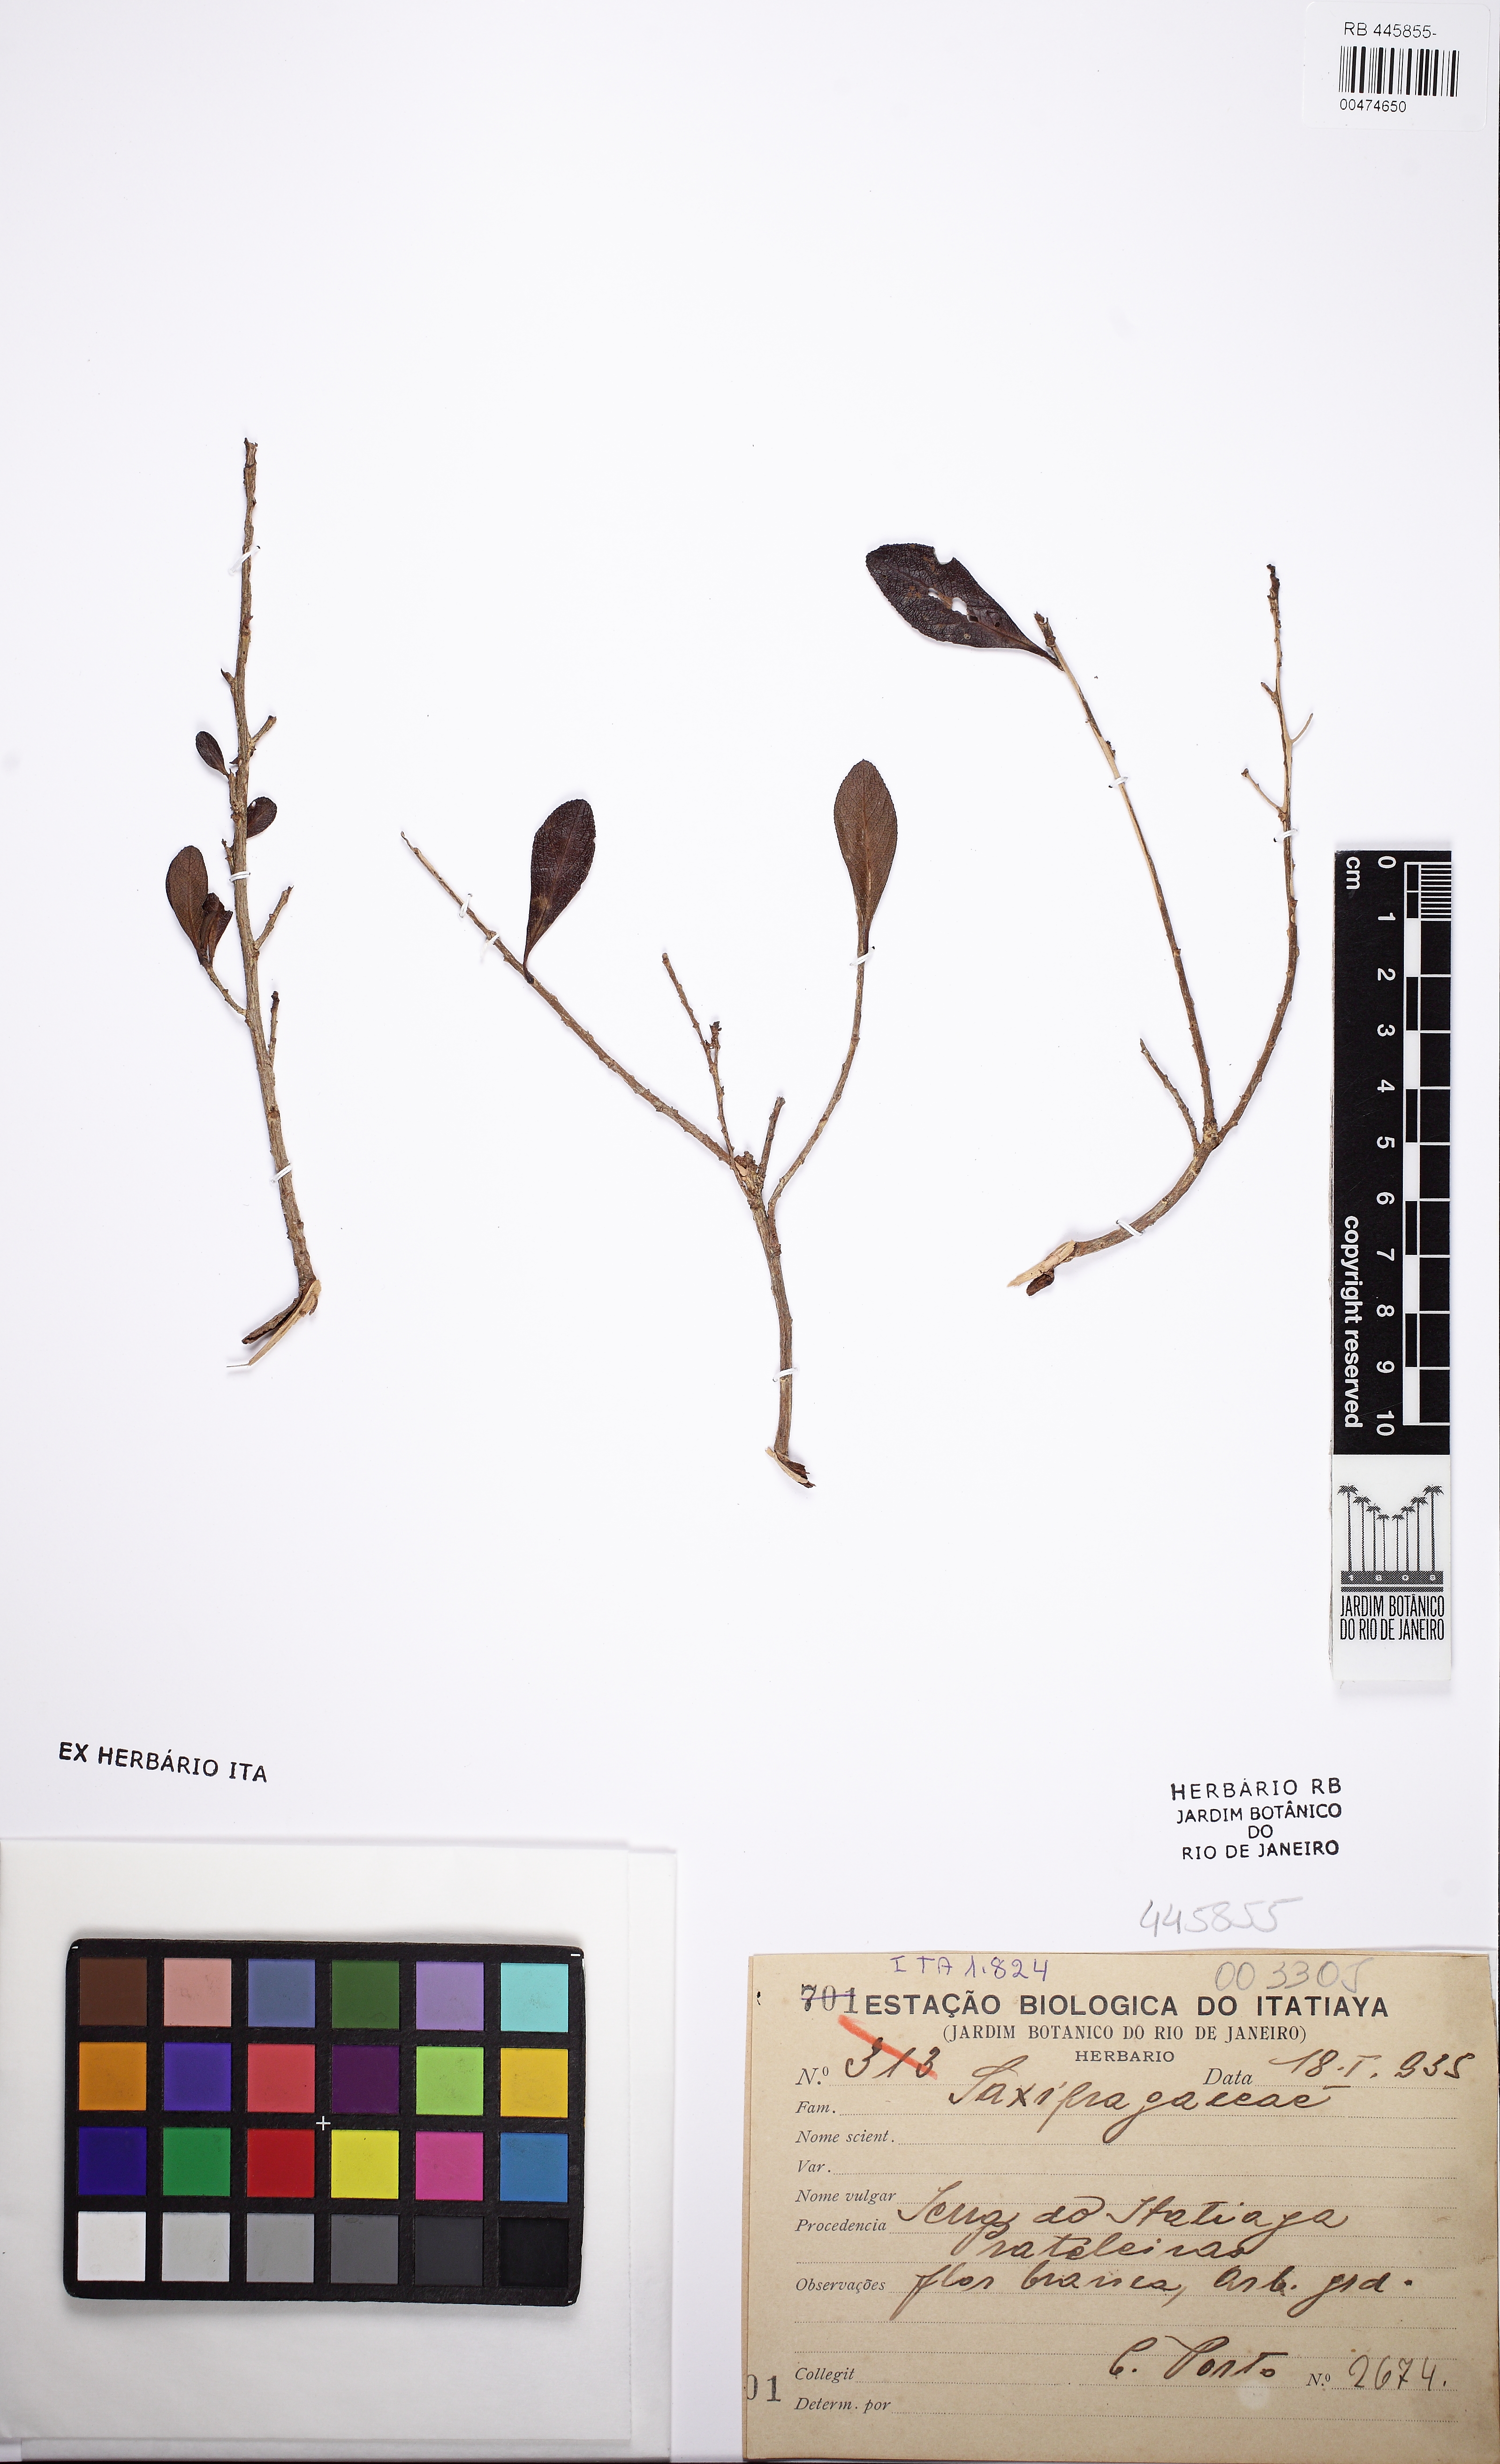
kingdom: Plantae
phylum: Tracheophyta
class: Magnoliopsida
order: Saxifragales
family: Saxifragaceae
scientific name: Saxifragaceae
